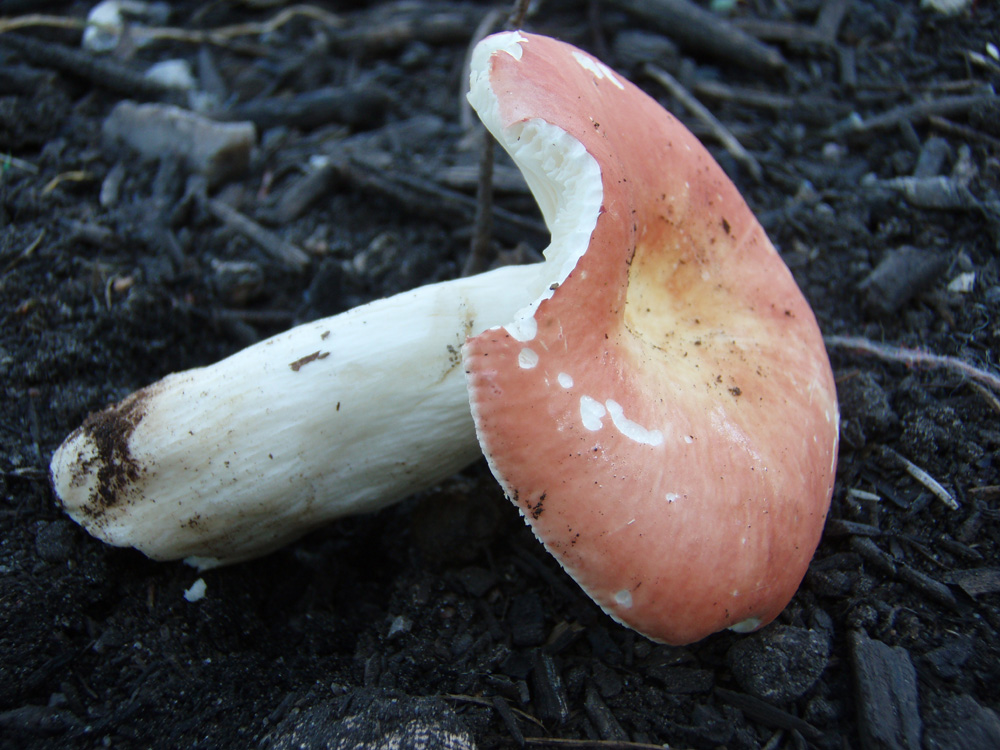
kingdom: Fungi
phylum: Basidiomycota
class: Agaricomycetes
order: Russulales
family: Russulaceae
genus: Russula
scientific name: Russula rosea
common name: fastkødet skørhat
